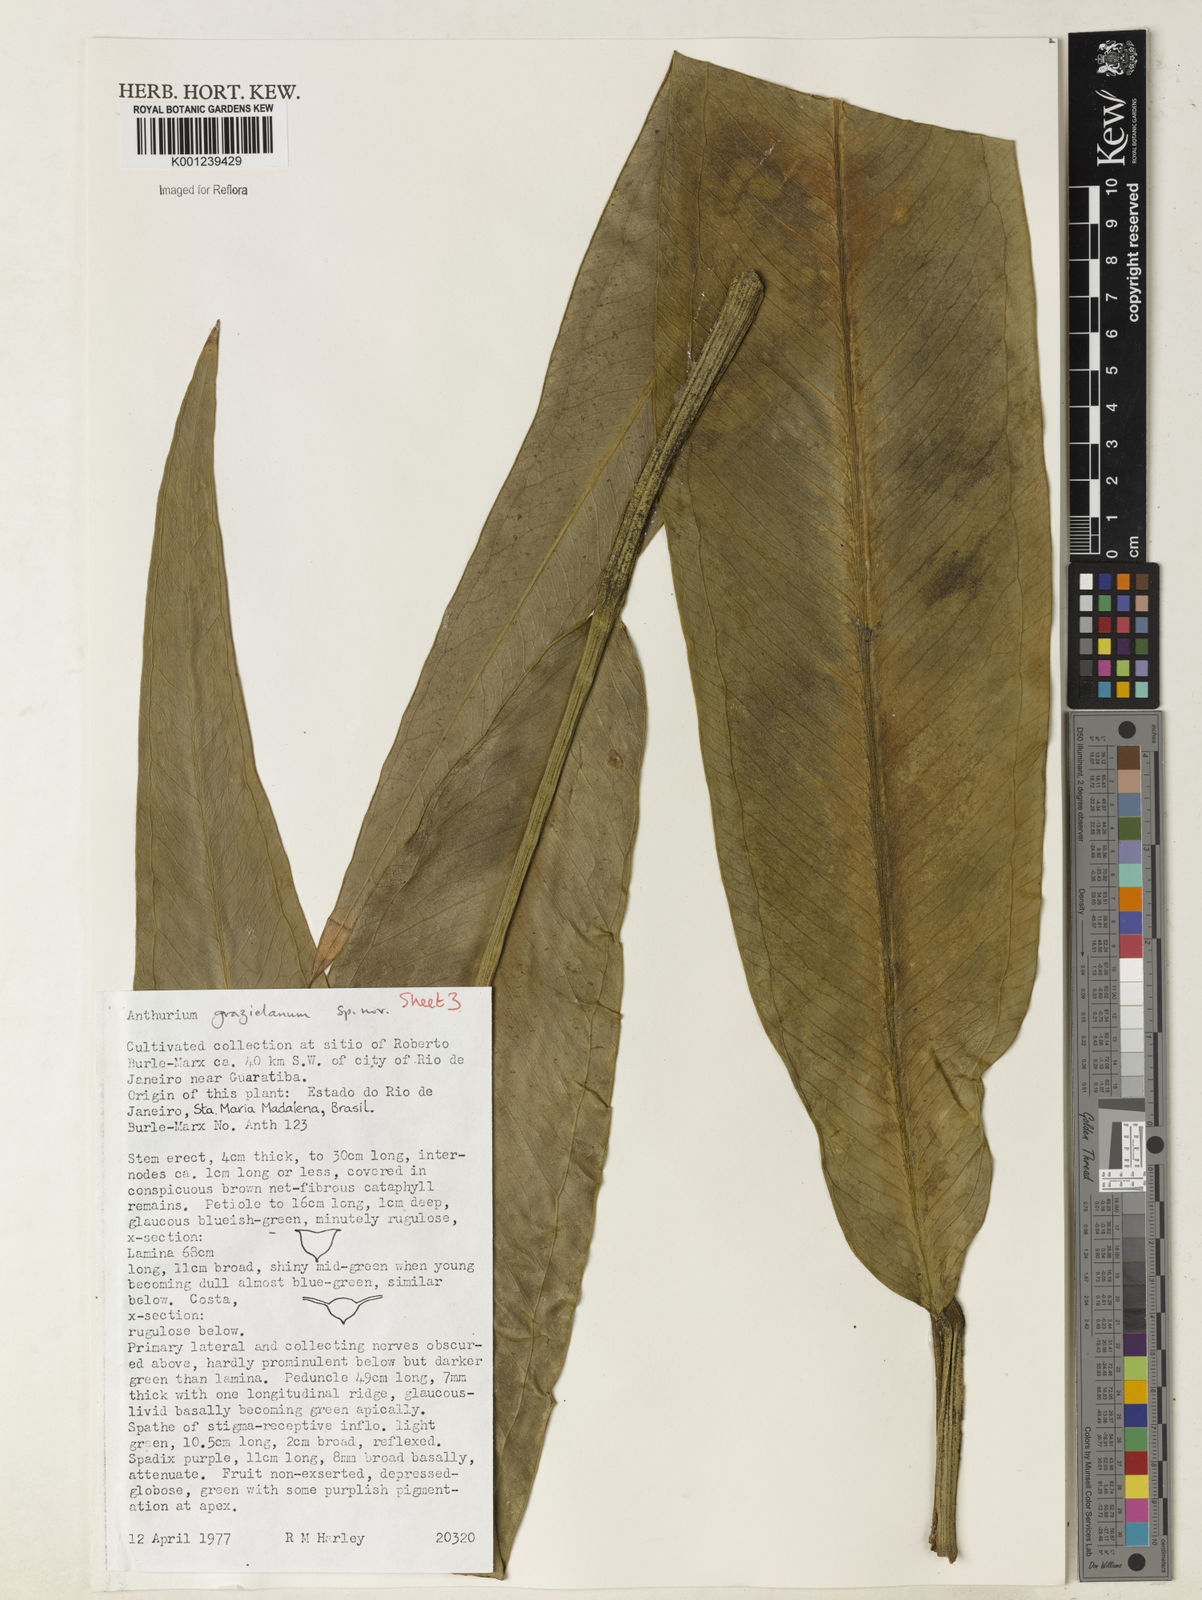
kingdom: Plantae
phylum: Tracheophyta
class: Liliopsida
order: Alismatales
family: Araceae
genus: Anthurium
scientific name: Anthurium
